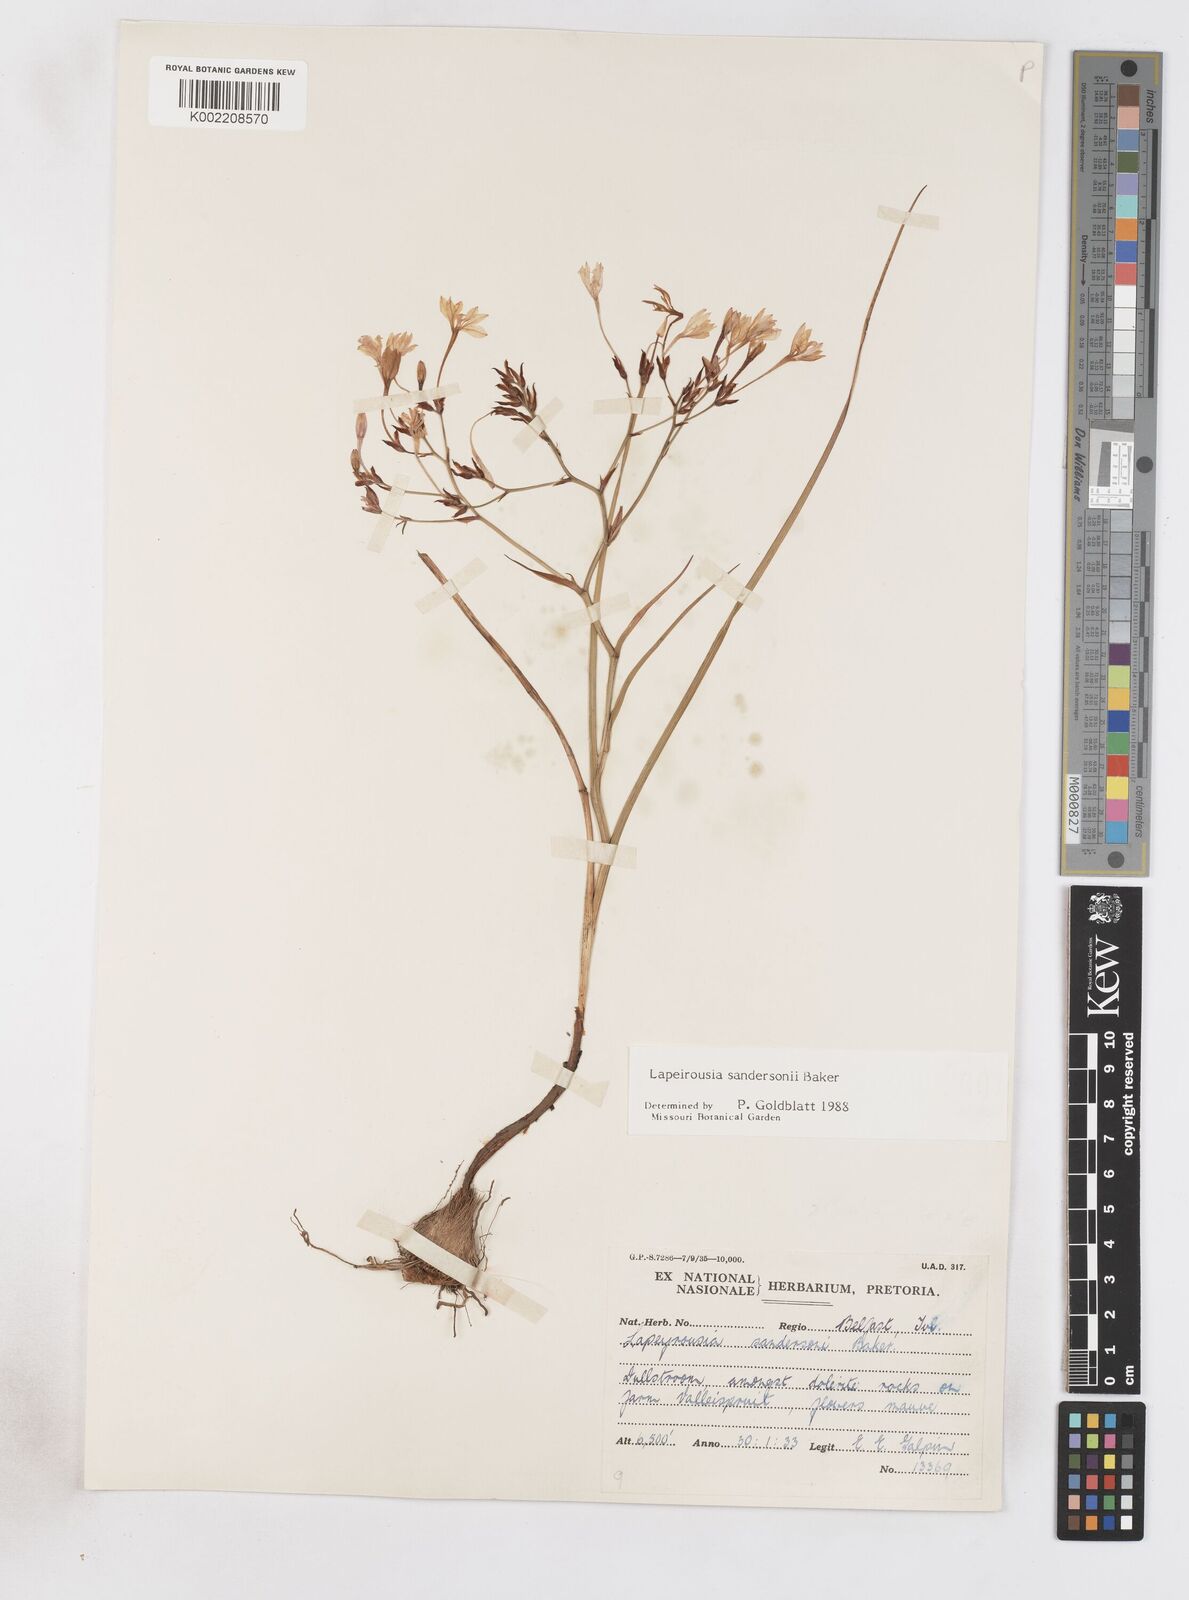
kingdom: Plantae
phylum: Tracheophyta
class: Liliopsida
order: Asparagales
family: Iridaceae
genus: Afrosolen
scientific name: Afrosolen sandersonii
